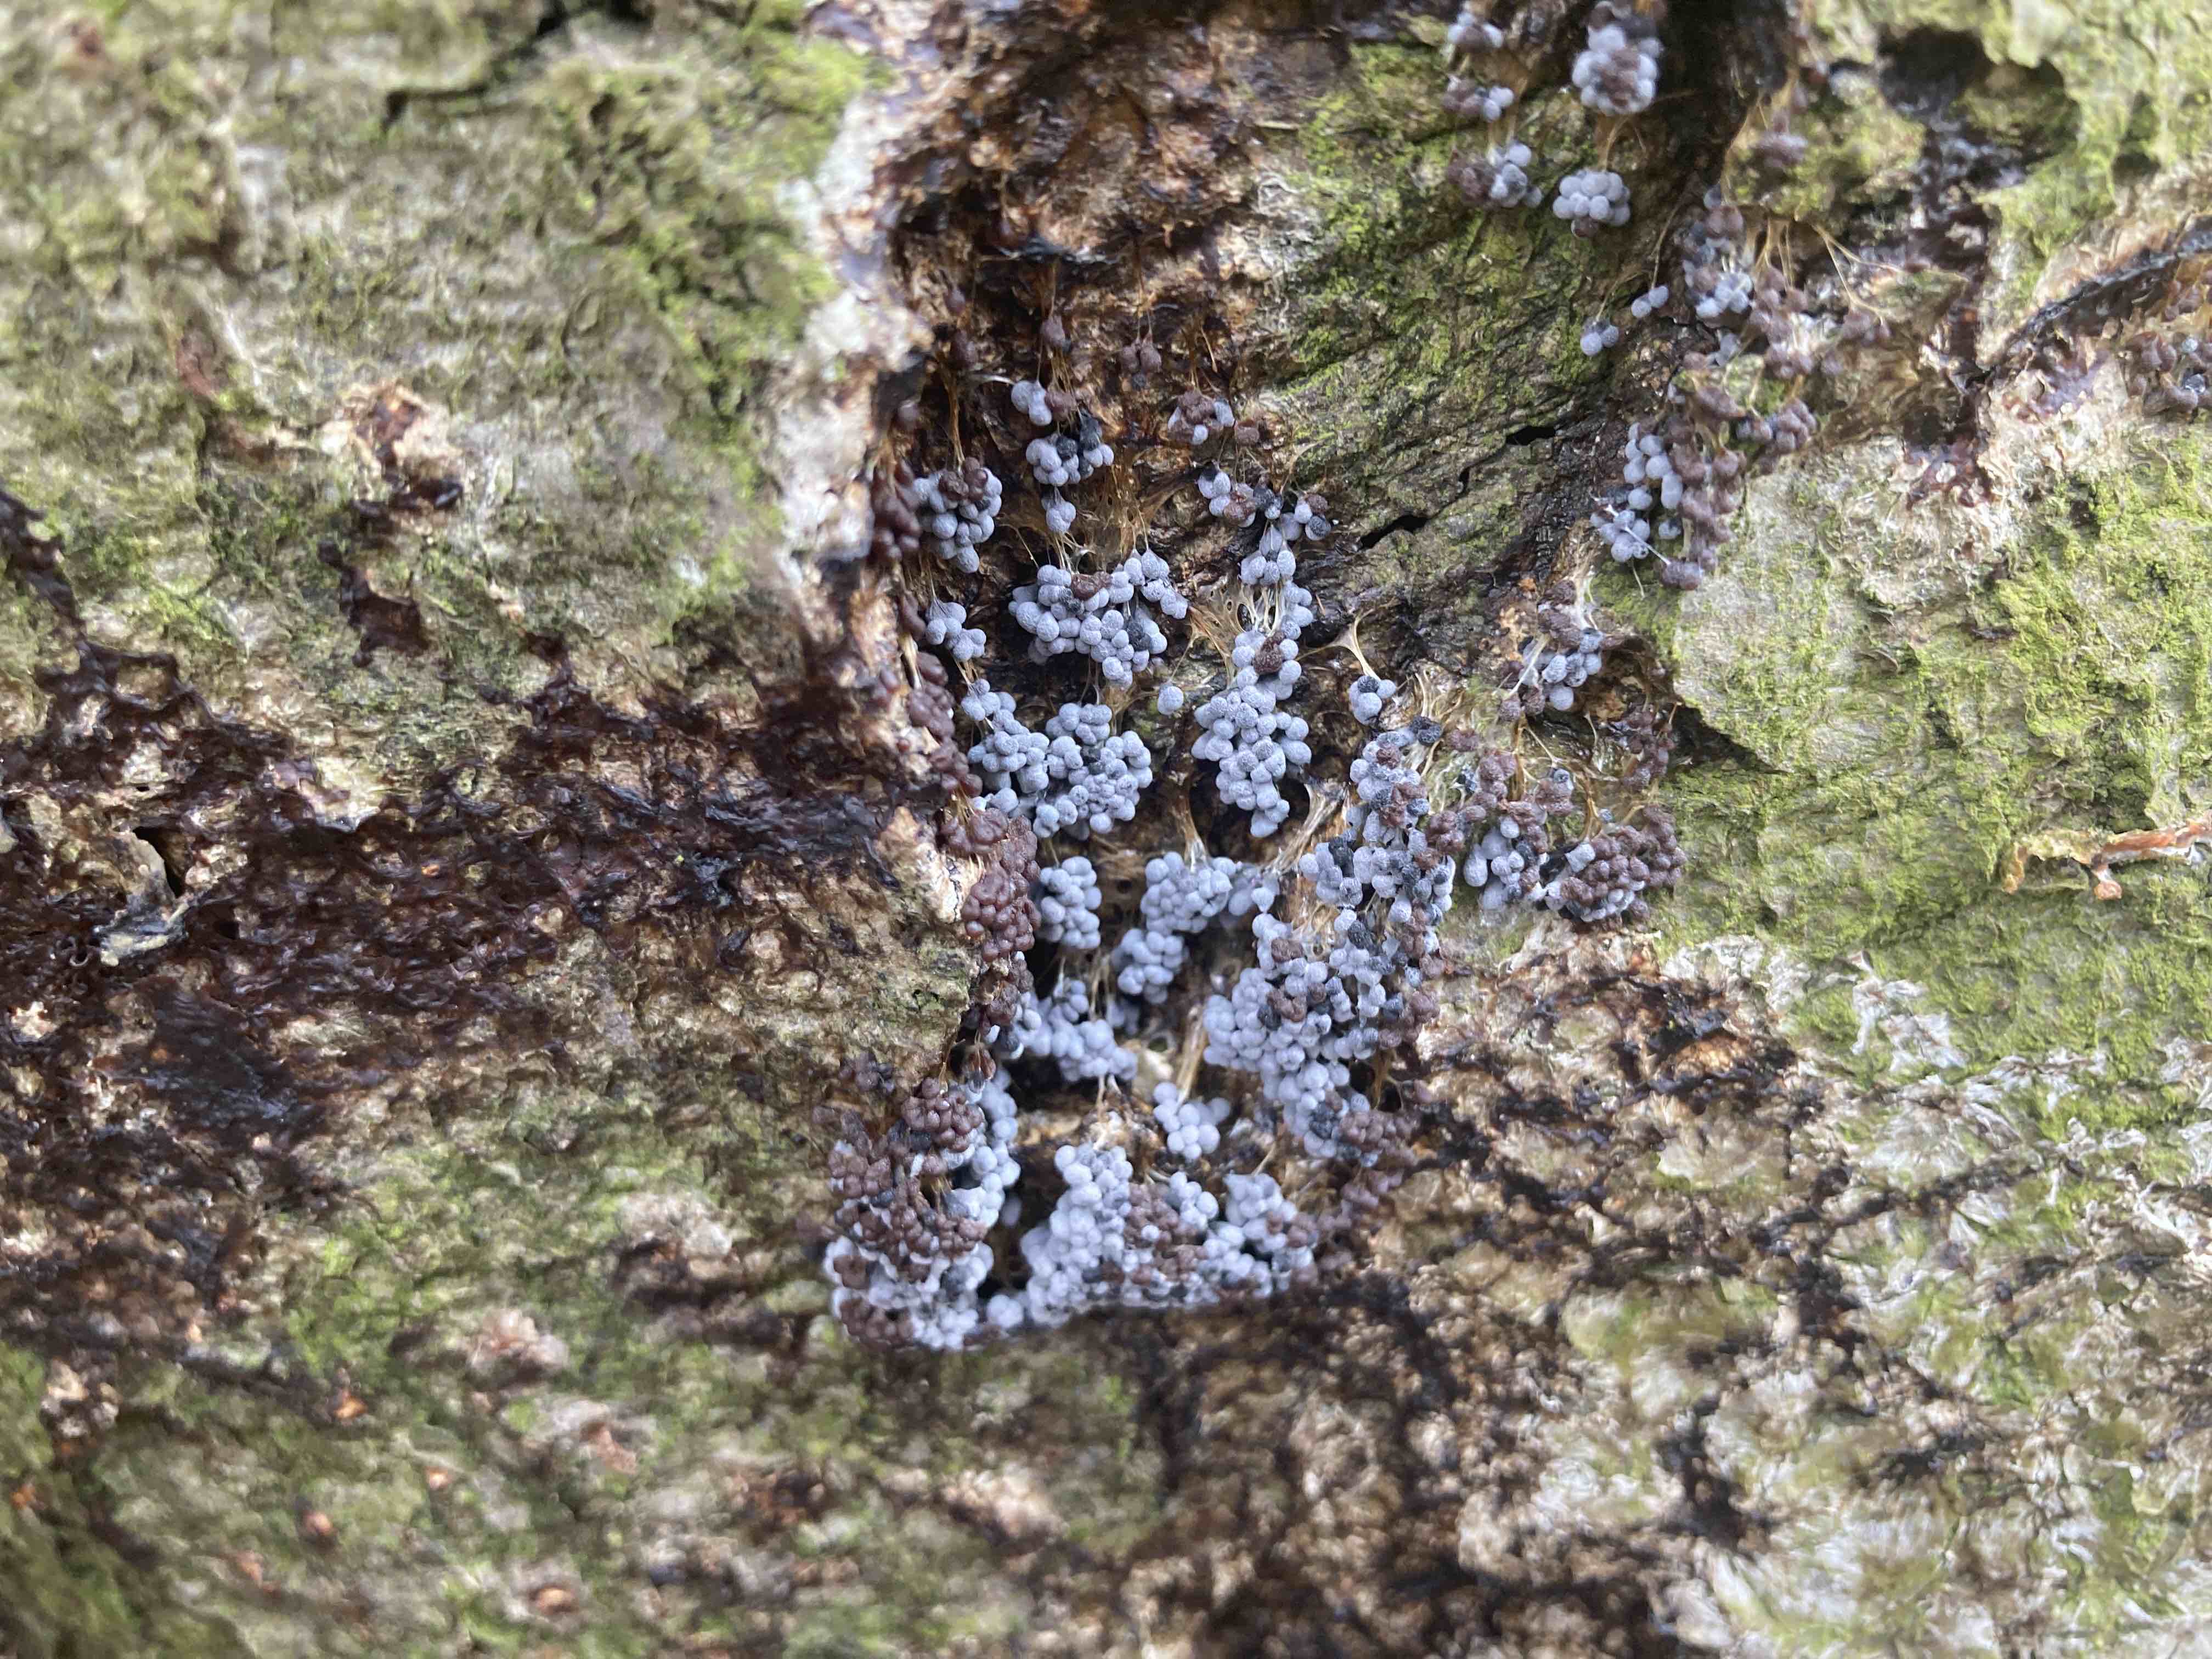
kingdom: Protozoa
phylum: Mycetozoa
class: Myxomycetes
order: Physarales
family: Physaraceae
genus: Badhamia
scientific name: Badhamia utricularis
